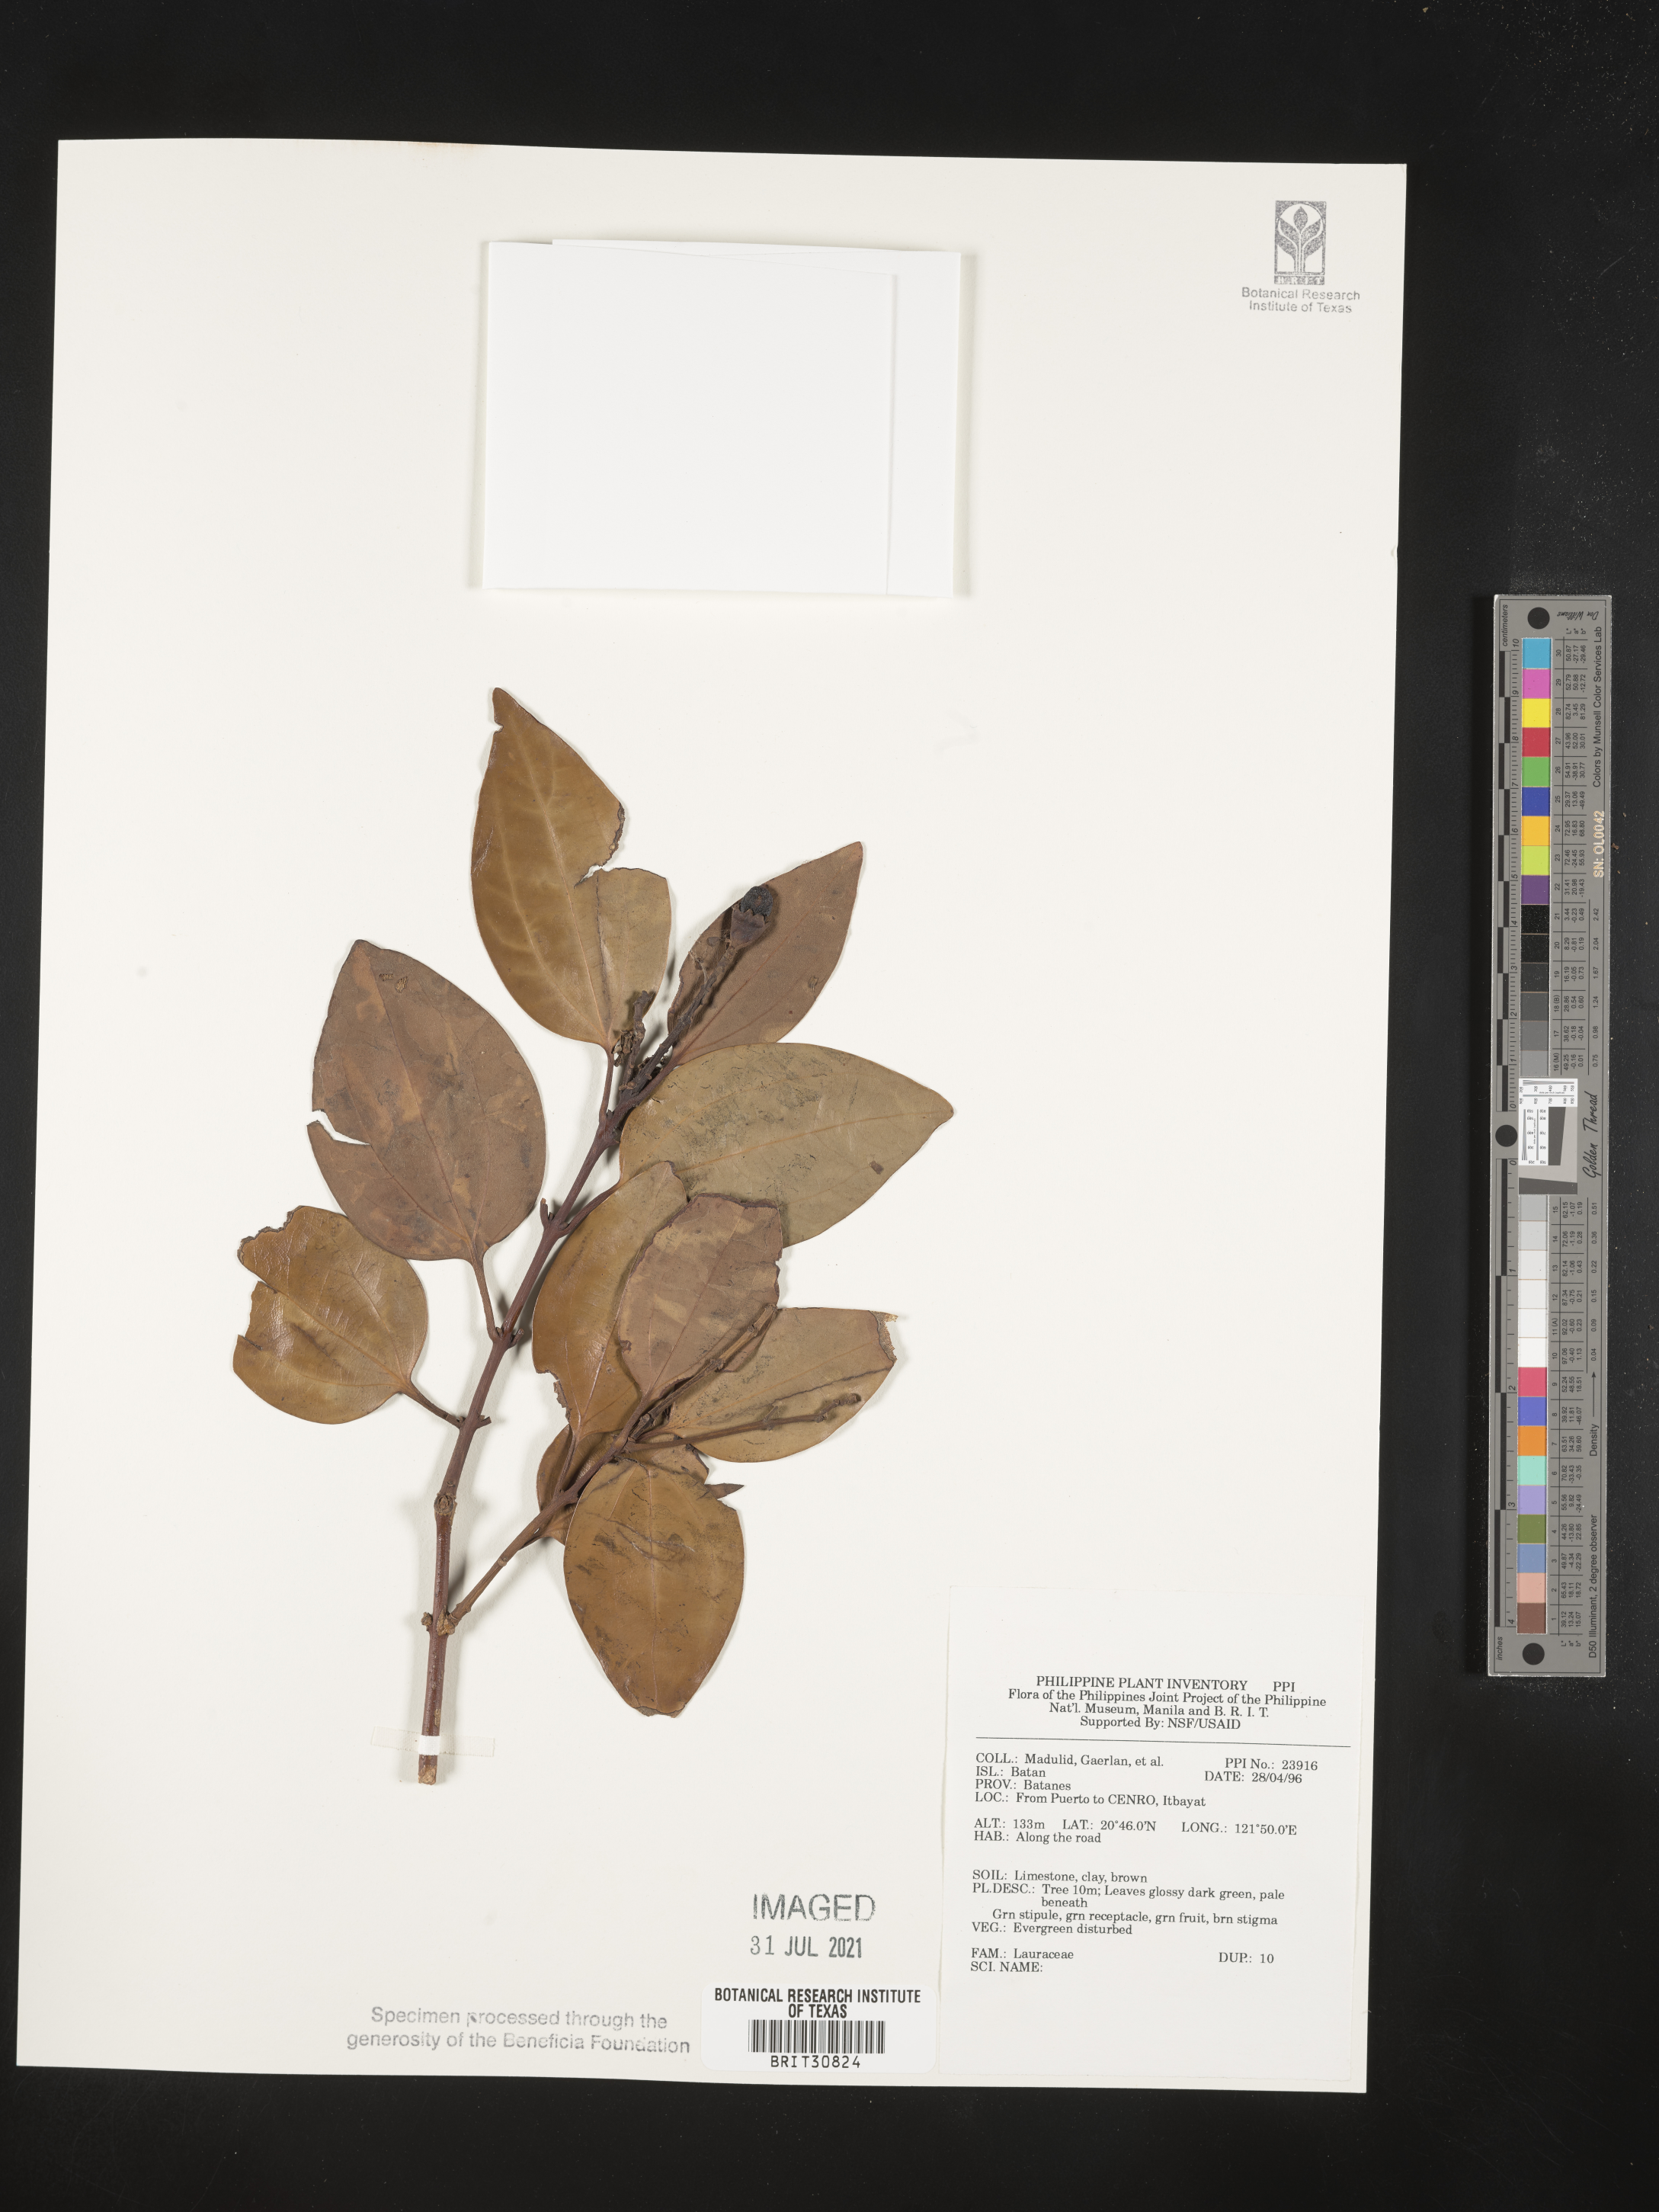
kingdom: Plantae
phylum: Tracheophyta
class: Magnoliopsida
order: Laurales
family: Lauraceae
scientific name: Lauraceae
